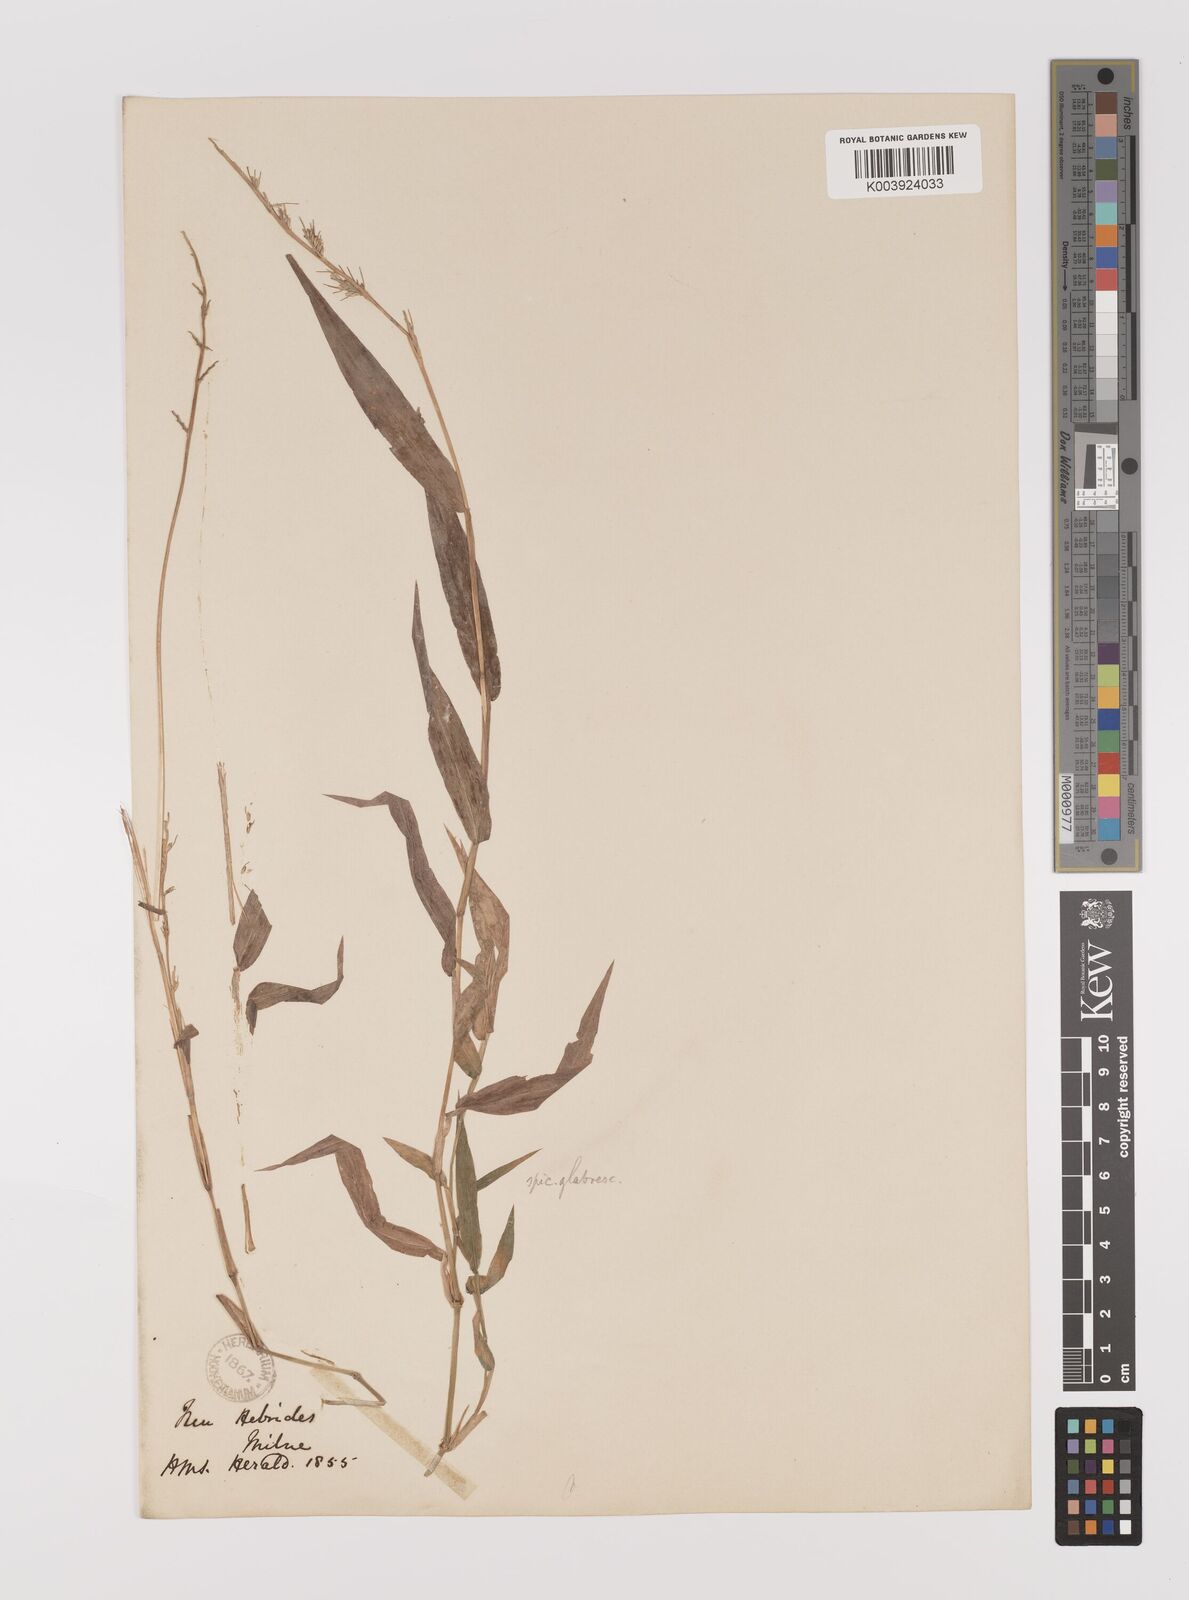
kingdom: Plantae
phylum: Tracheophyta
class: Liliopsida
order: Poales
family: Poaceae
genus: Oplismenus
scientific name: Oplismenus hirtellus
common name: Basketgrass
